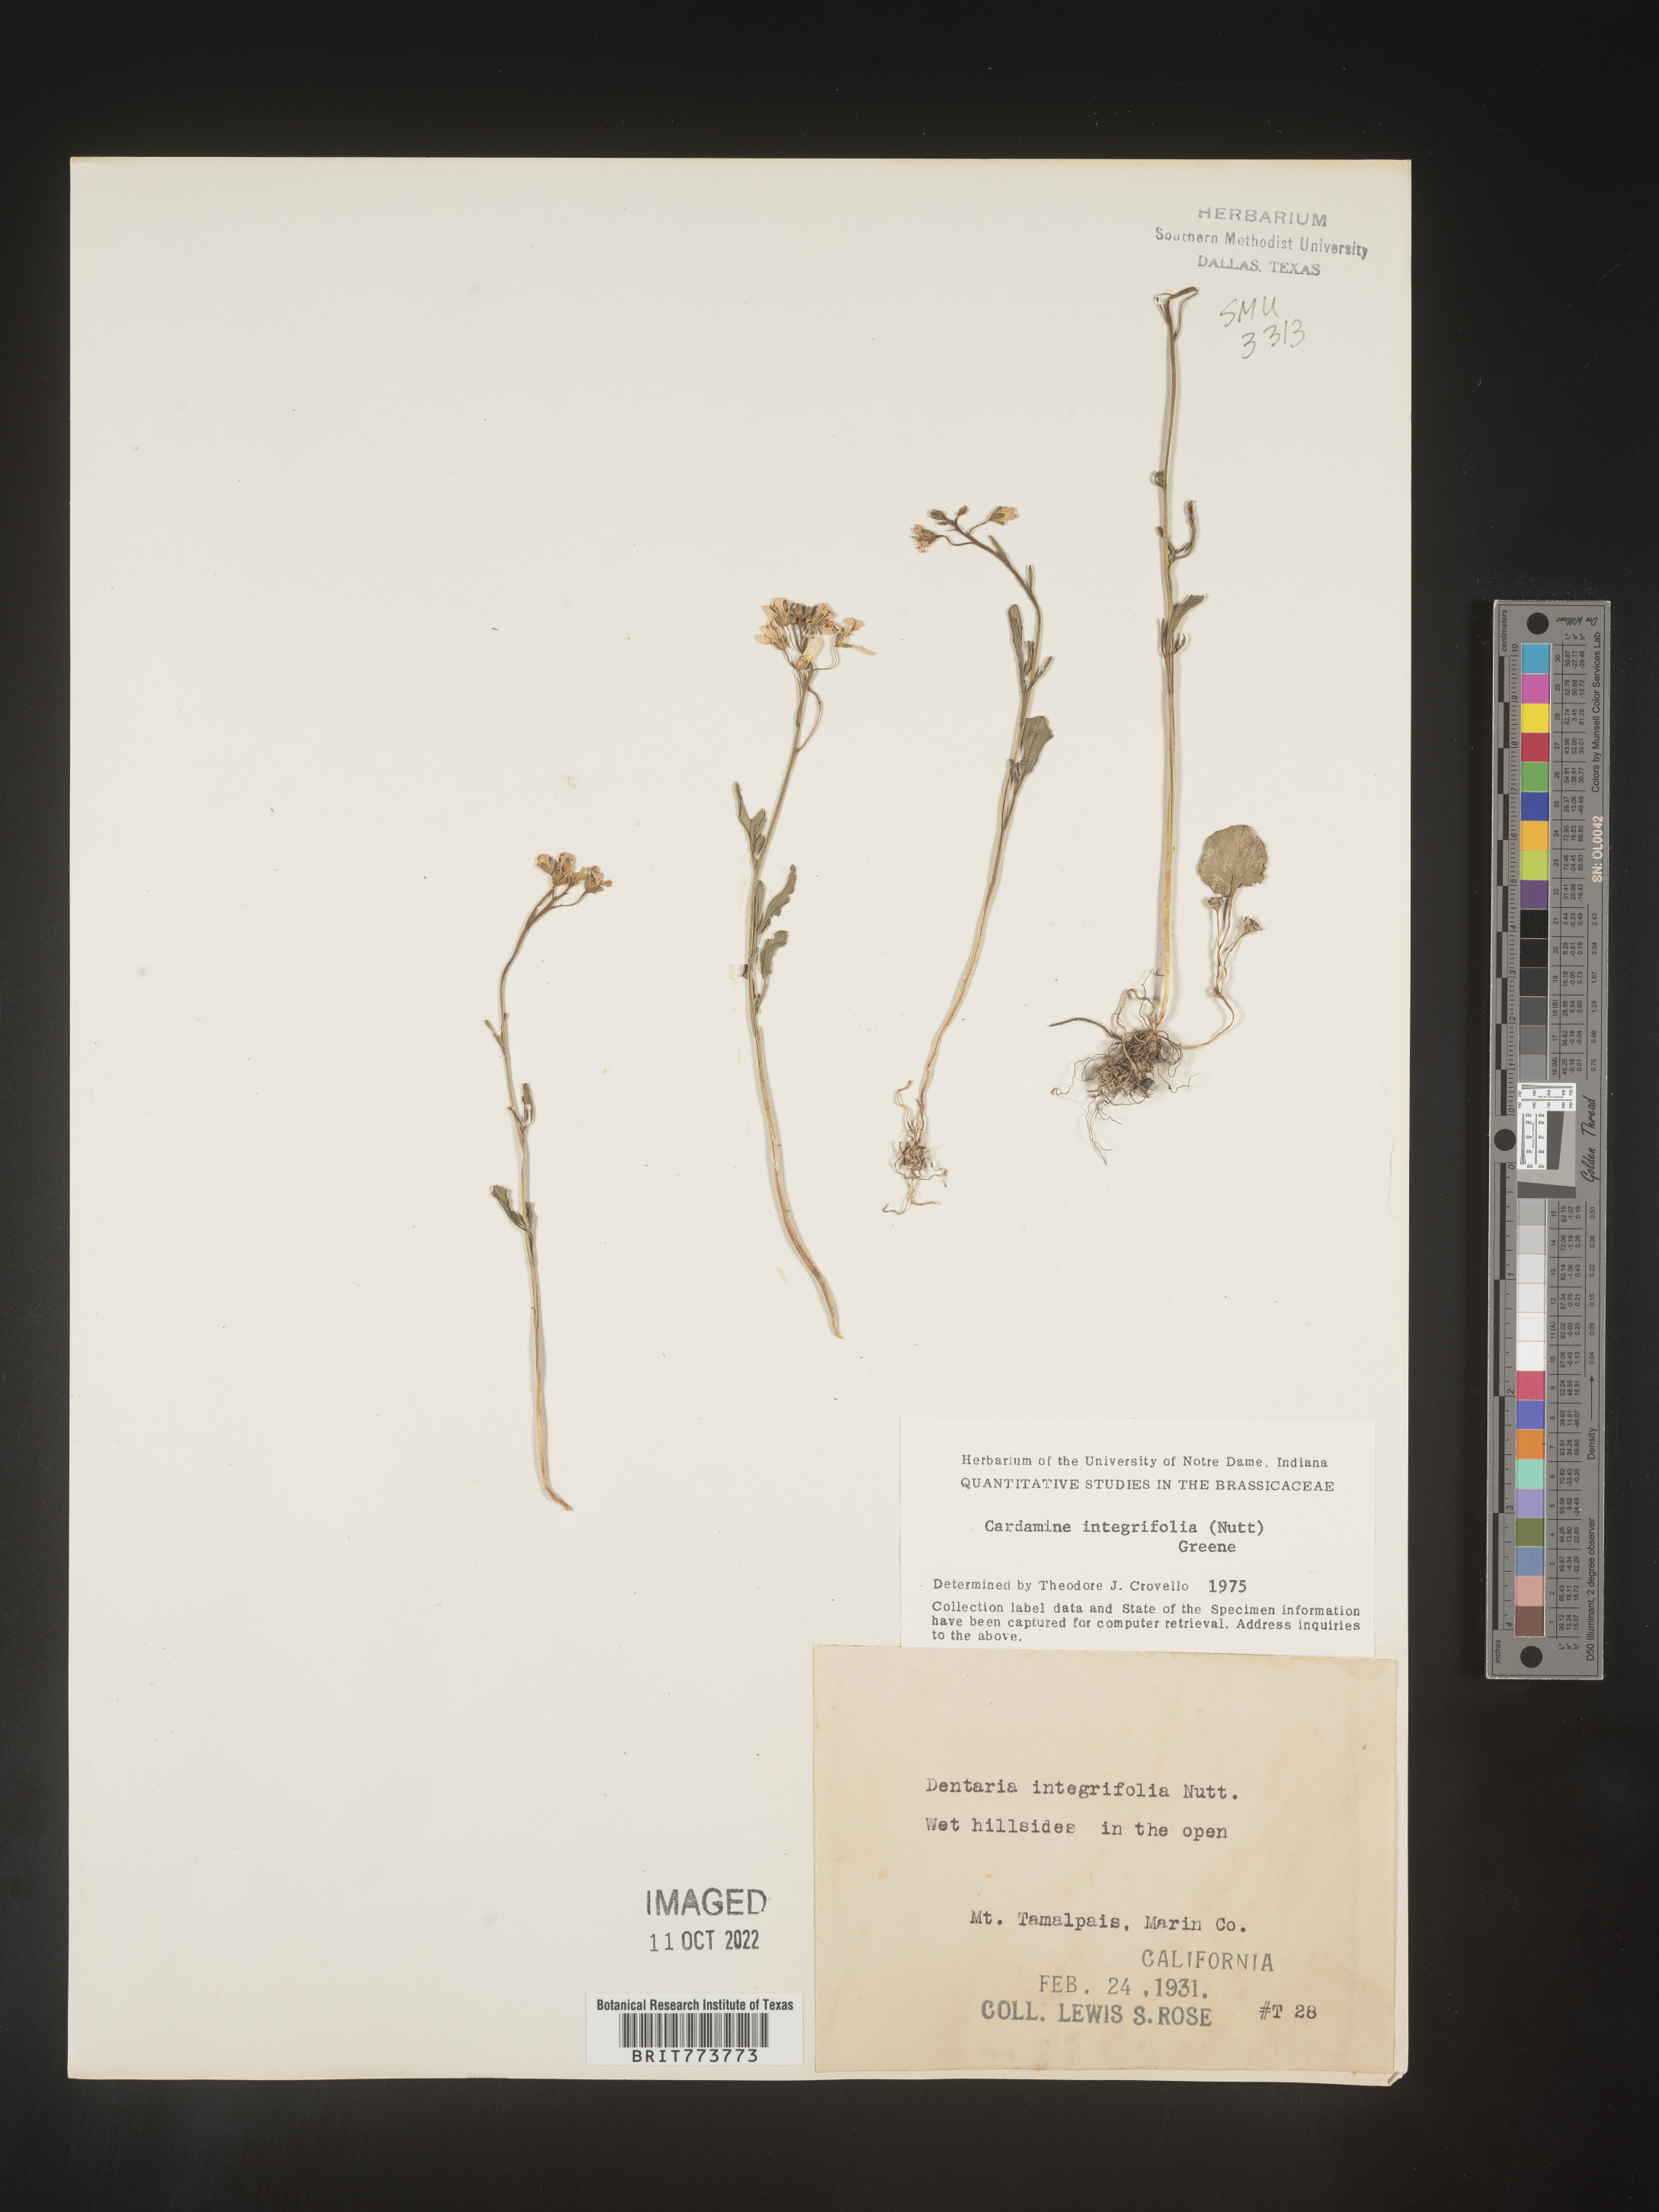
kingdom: Plantae
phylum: Tracheophyta
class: Magnoliopsida
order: Brassicales
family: Brassicaceae
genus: Cardamine
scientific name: Cardamine bellidifolia
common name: Alpine bittercress
